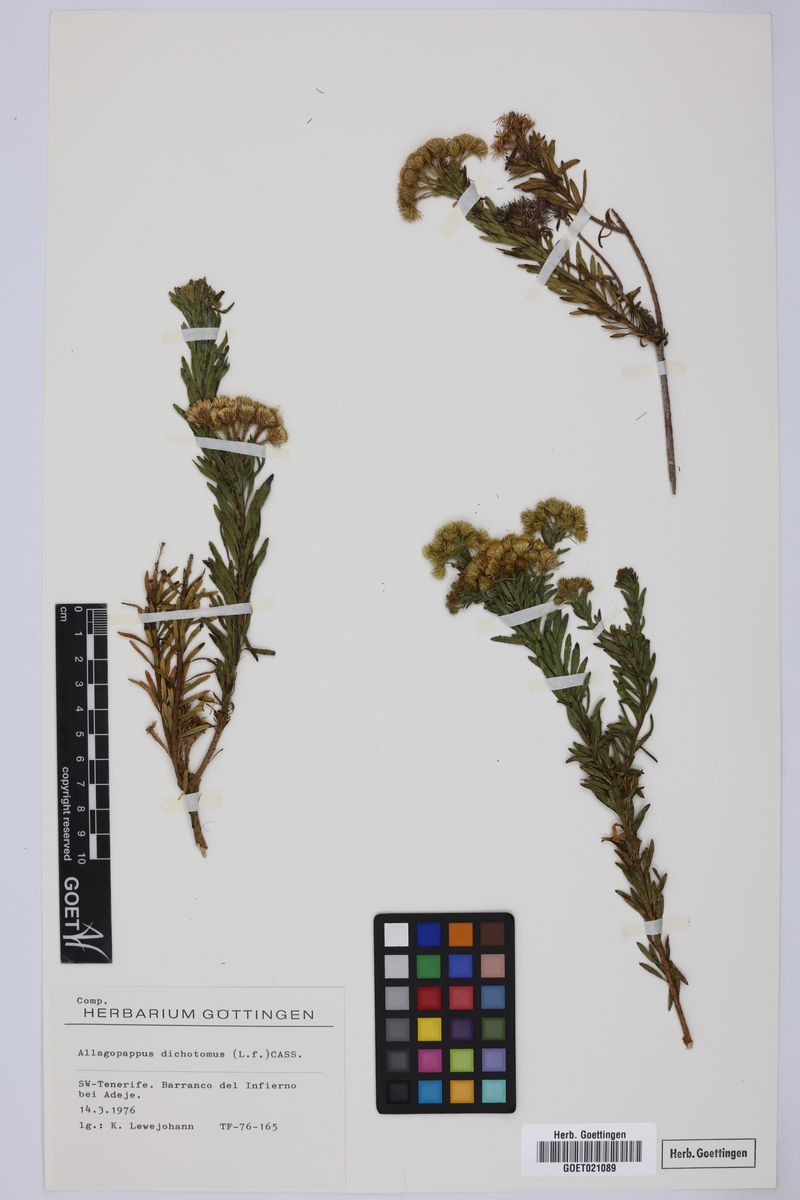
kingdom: Plantae
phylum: Tracheophyta
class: Magnoliopsida
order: Asterales
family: Asteraceae
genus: Allagopappus
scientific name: Allagopappus canariensis
